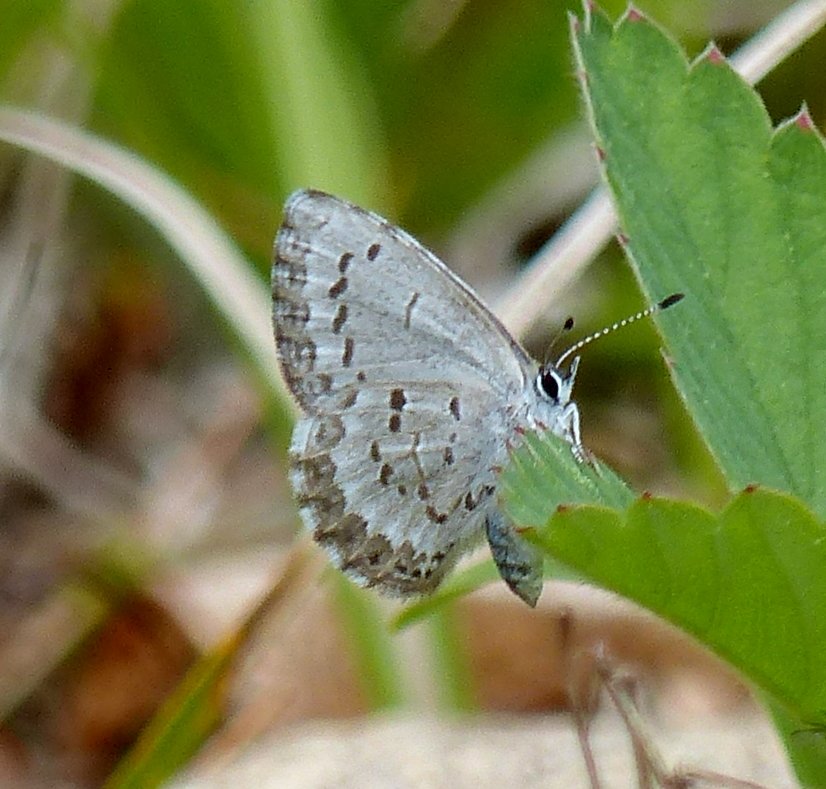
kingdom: Animalia
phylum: Arthropoda
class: Insecta
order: Lepidoptera
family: Lycaenidae
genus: Celastrina
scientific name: Celastrina lucia
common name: Northern Spring Azure
